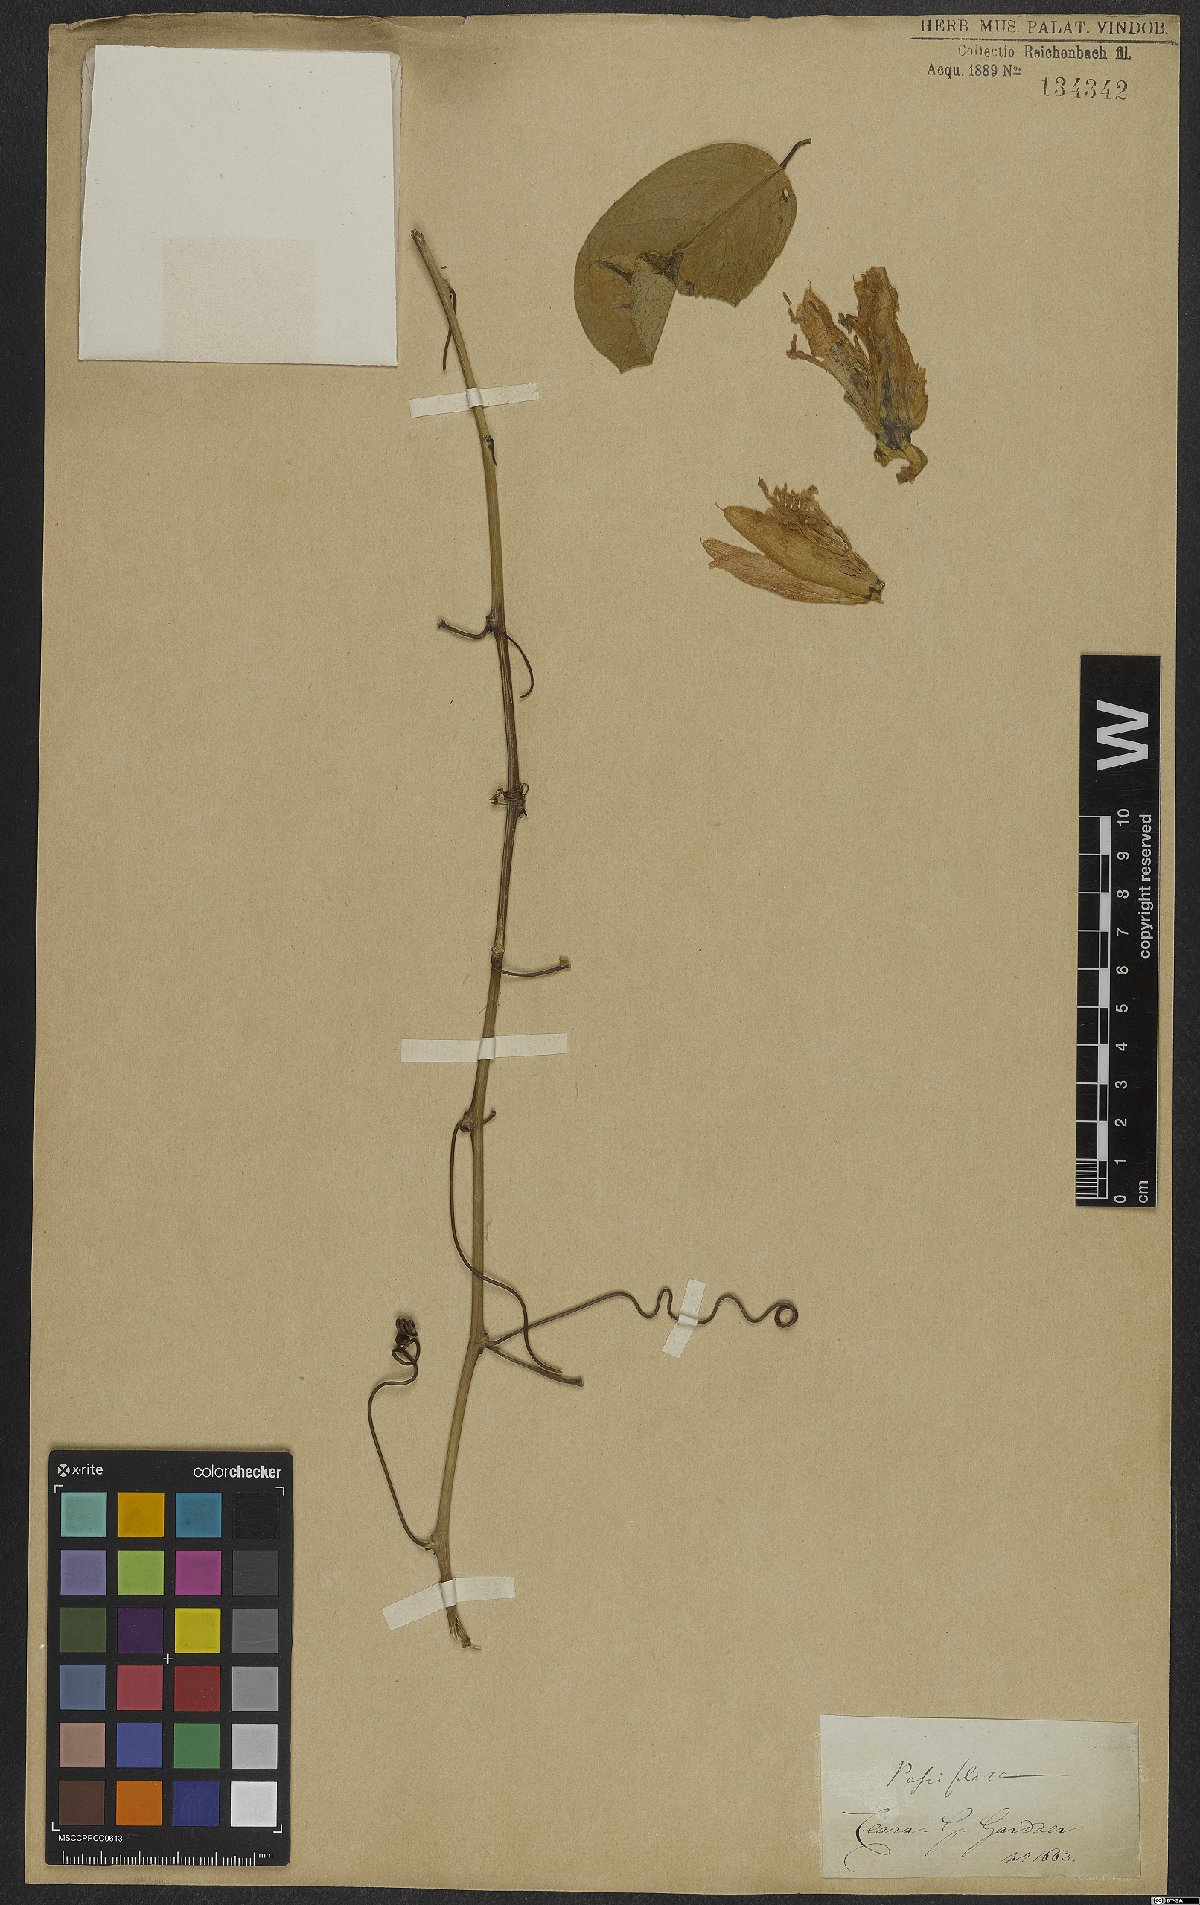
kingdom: Plantae
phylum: Tracheophyta
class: Magnoliopsida
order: Malpighiales
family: Passifloraceae
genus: Passiflora
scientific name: Passiflora
